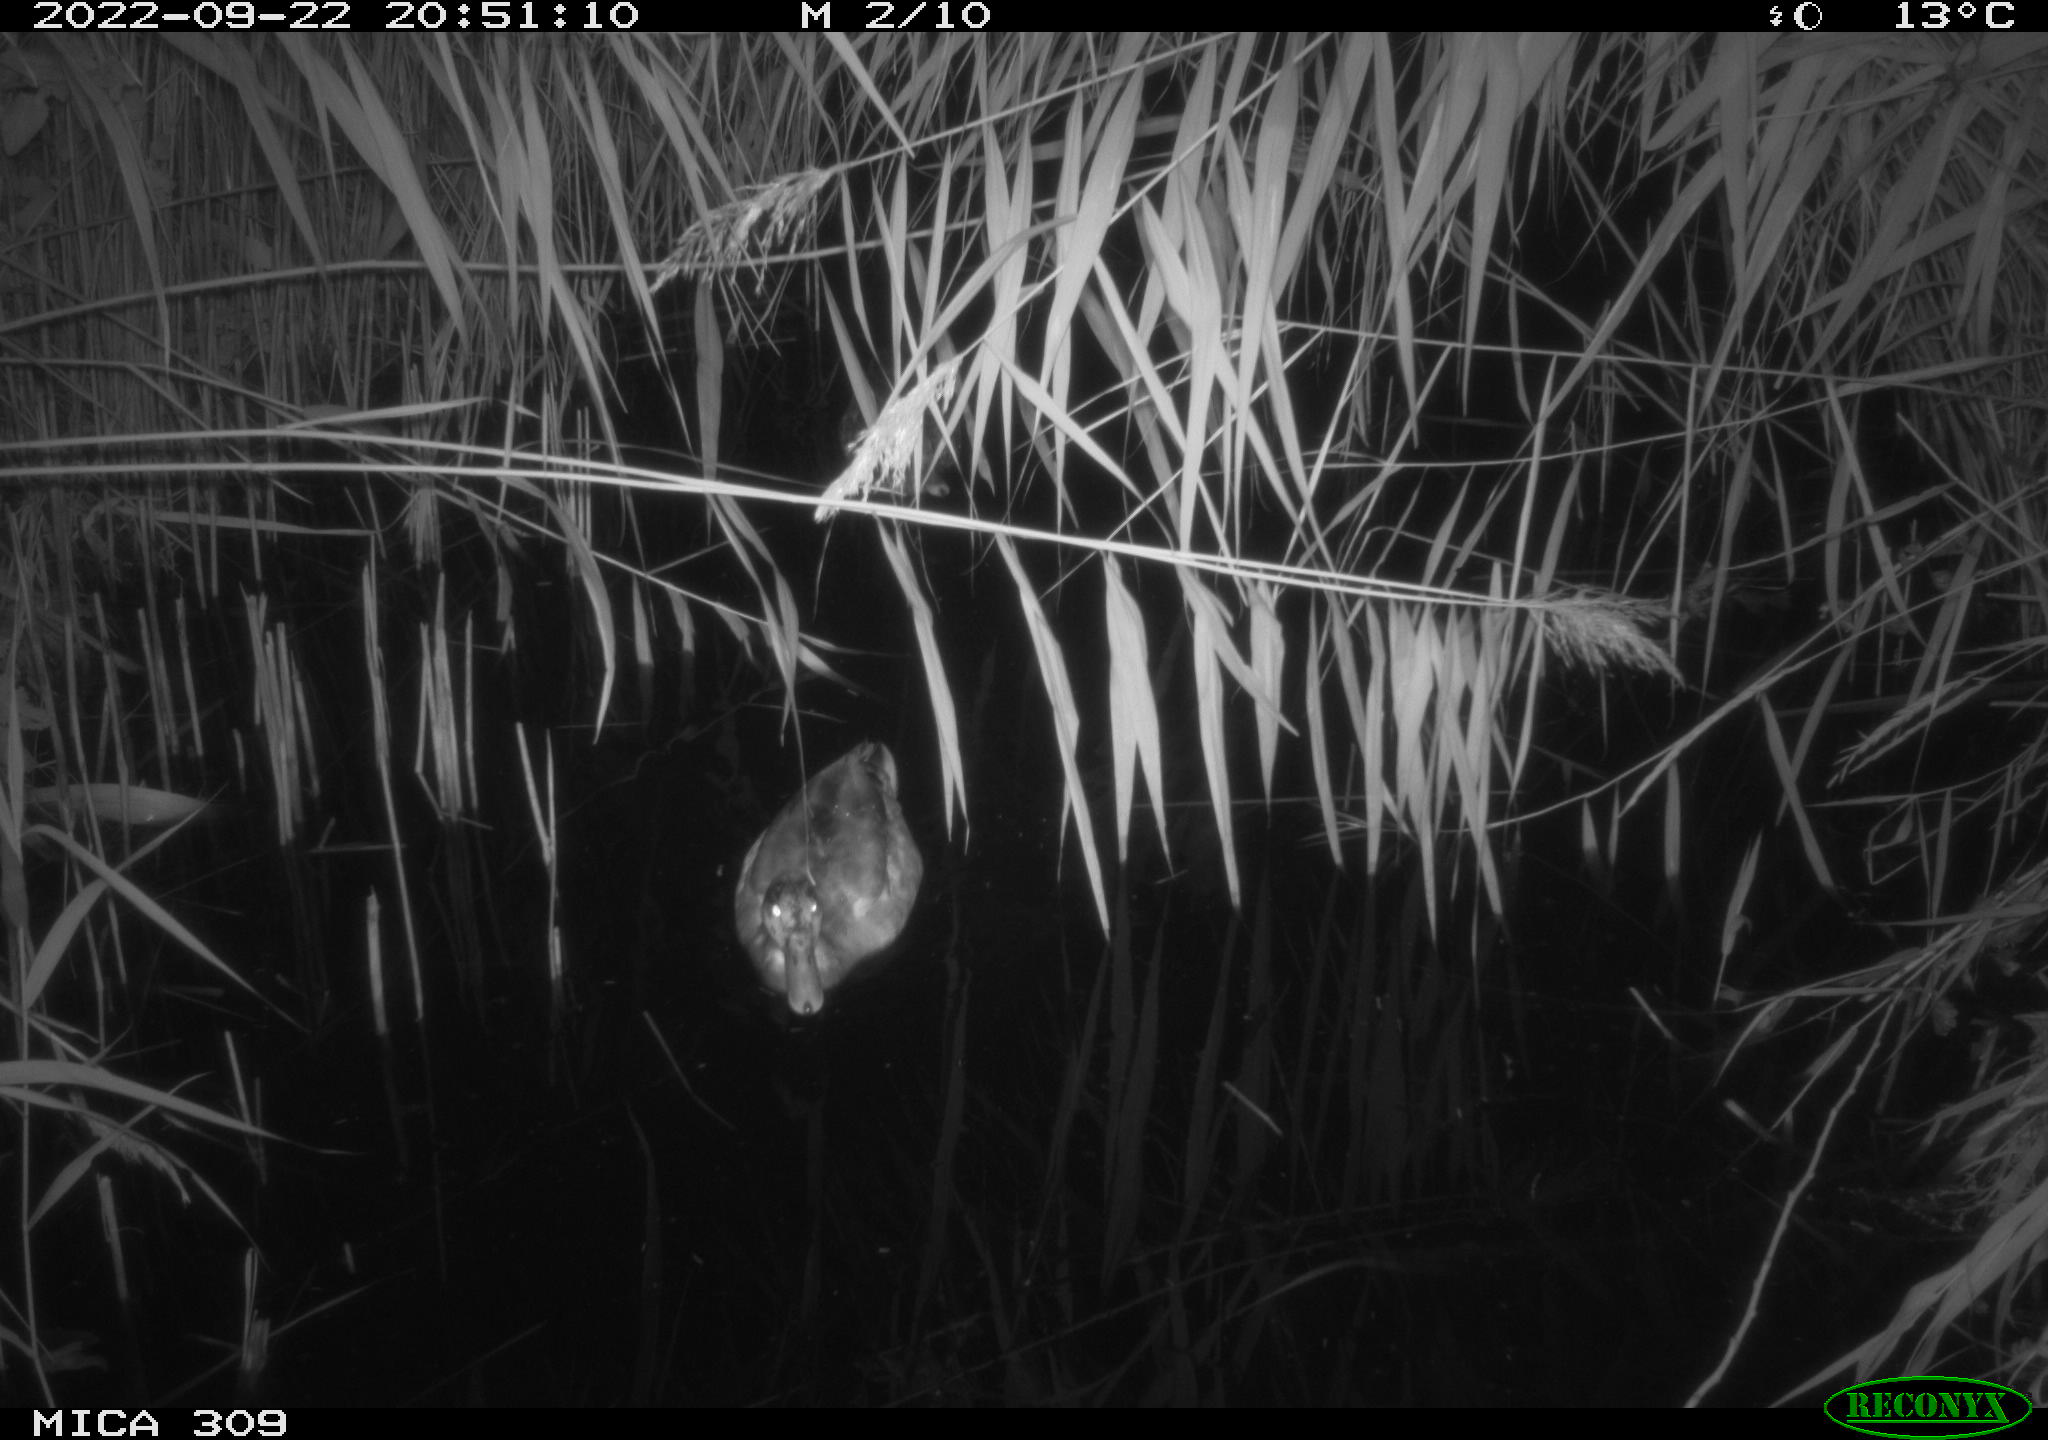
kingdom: Animalia
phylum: Chordata
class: Aves
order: Anseriformes
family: Anatidae
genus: Anas
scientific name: Anas
